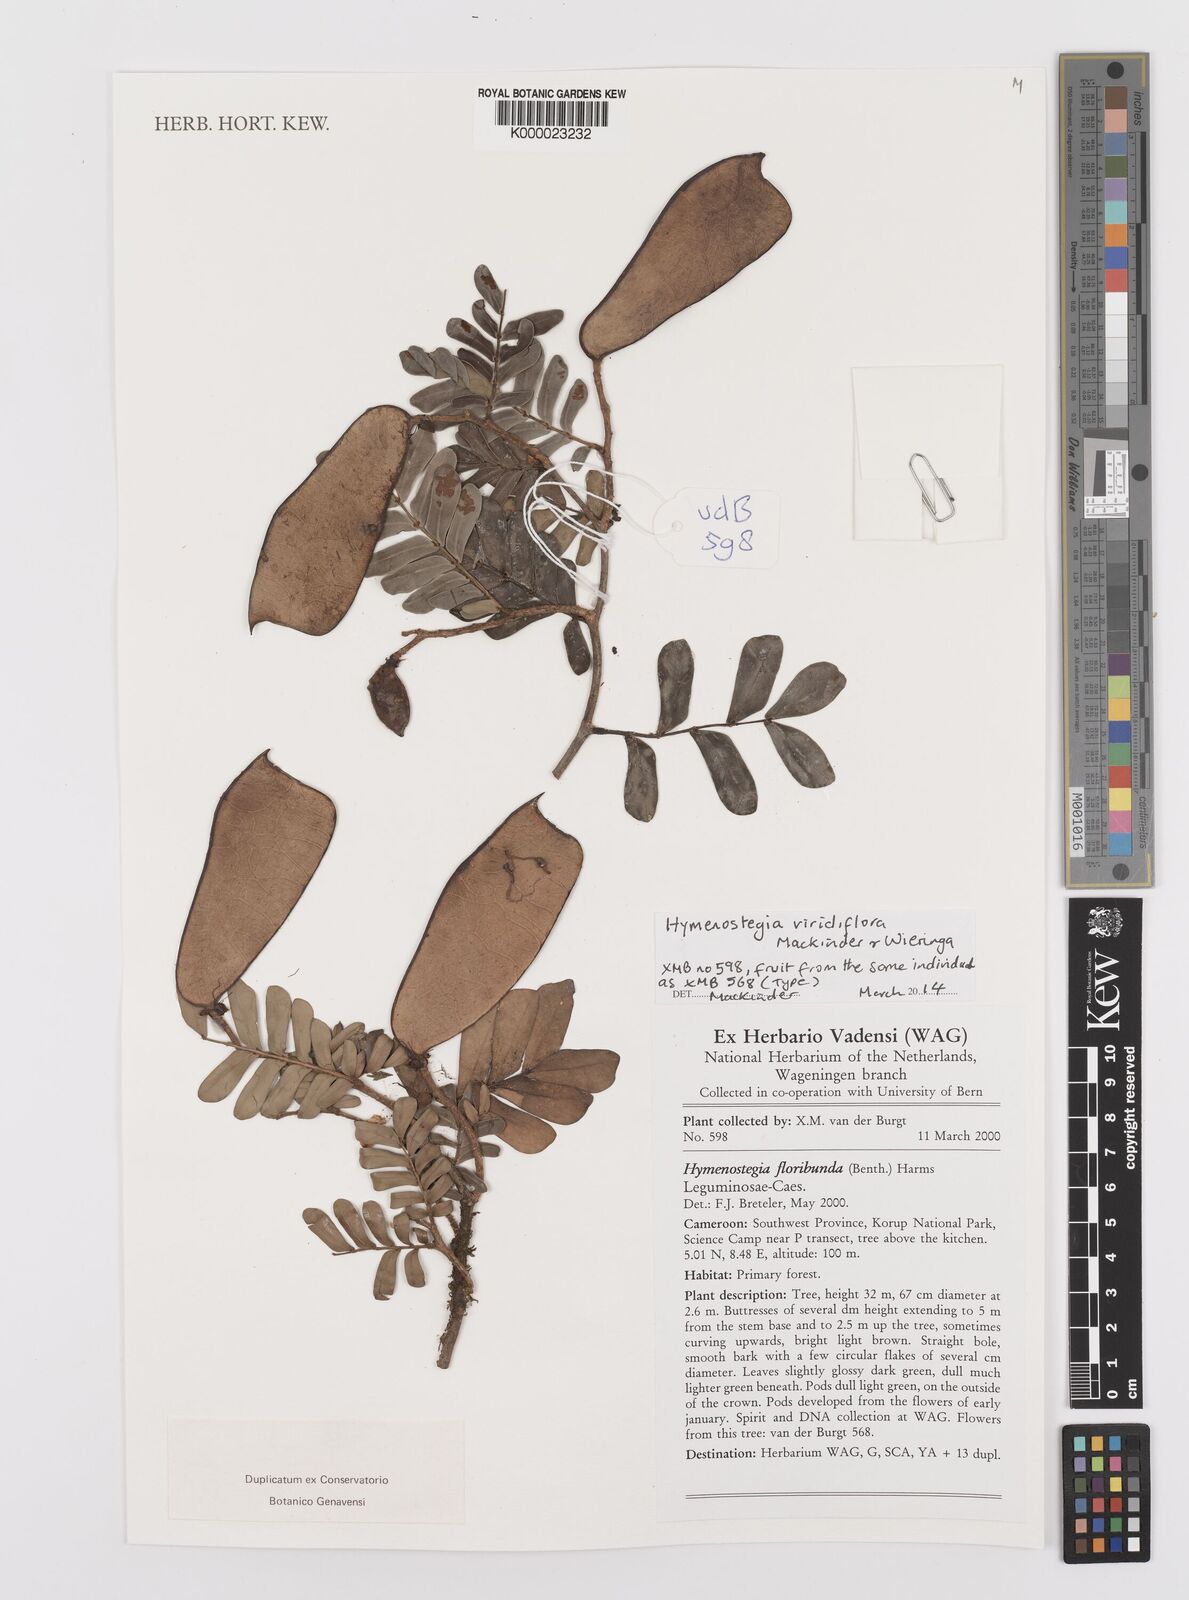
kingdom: Plantae
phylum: Tracheophyta
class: Magnoliopsida
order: Fabales
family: Fabaceae
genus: Hymenostegia
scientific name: Hymenostegia viridiflora
